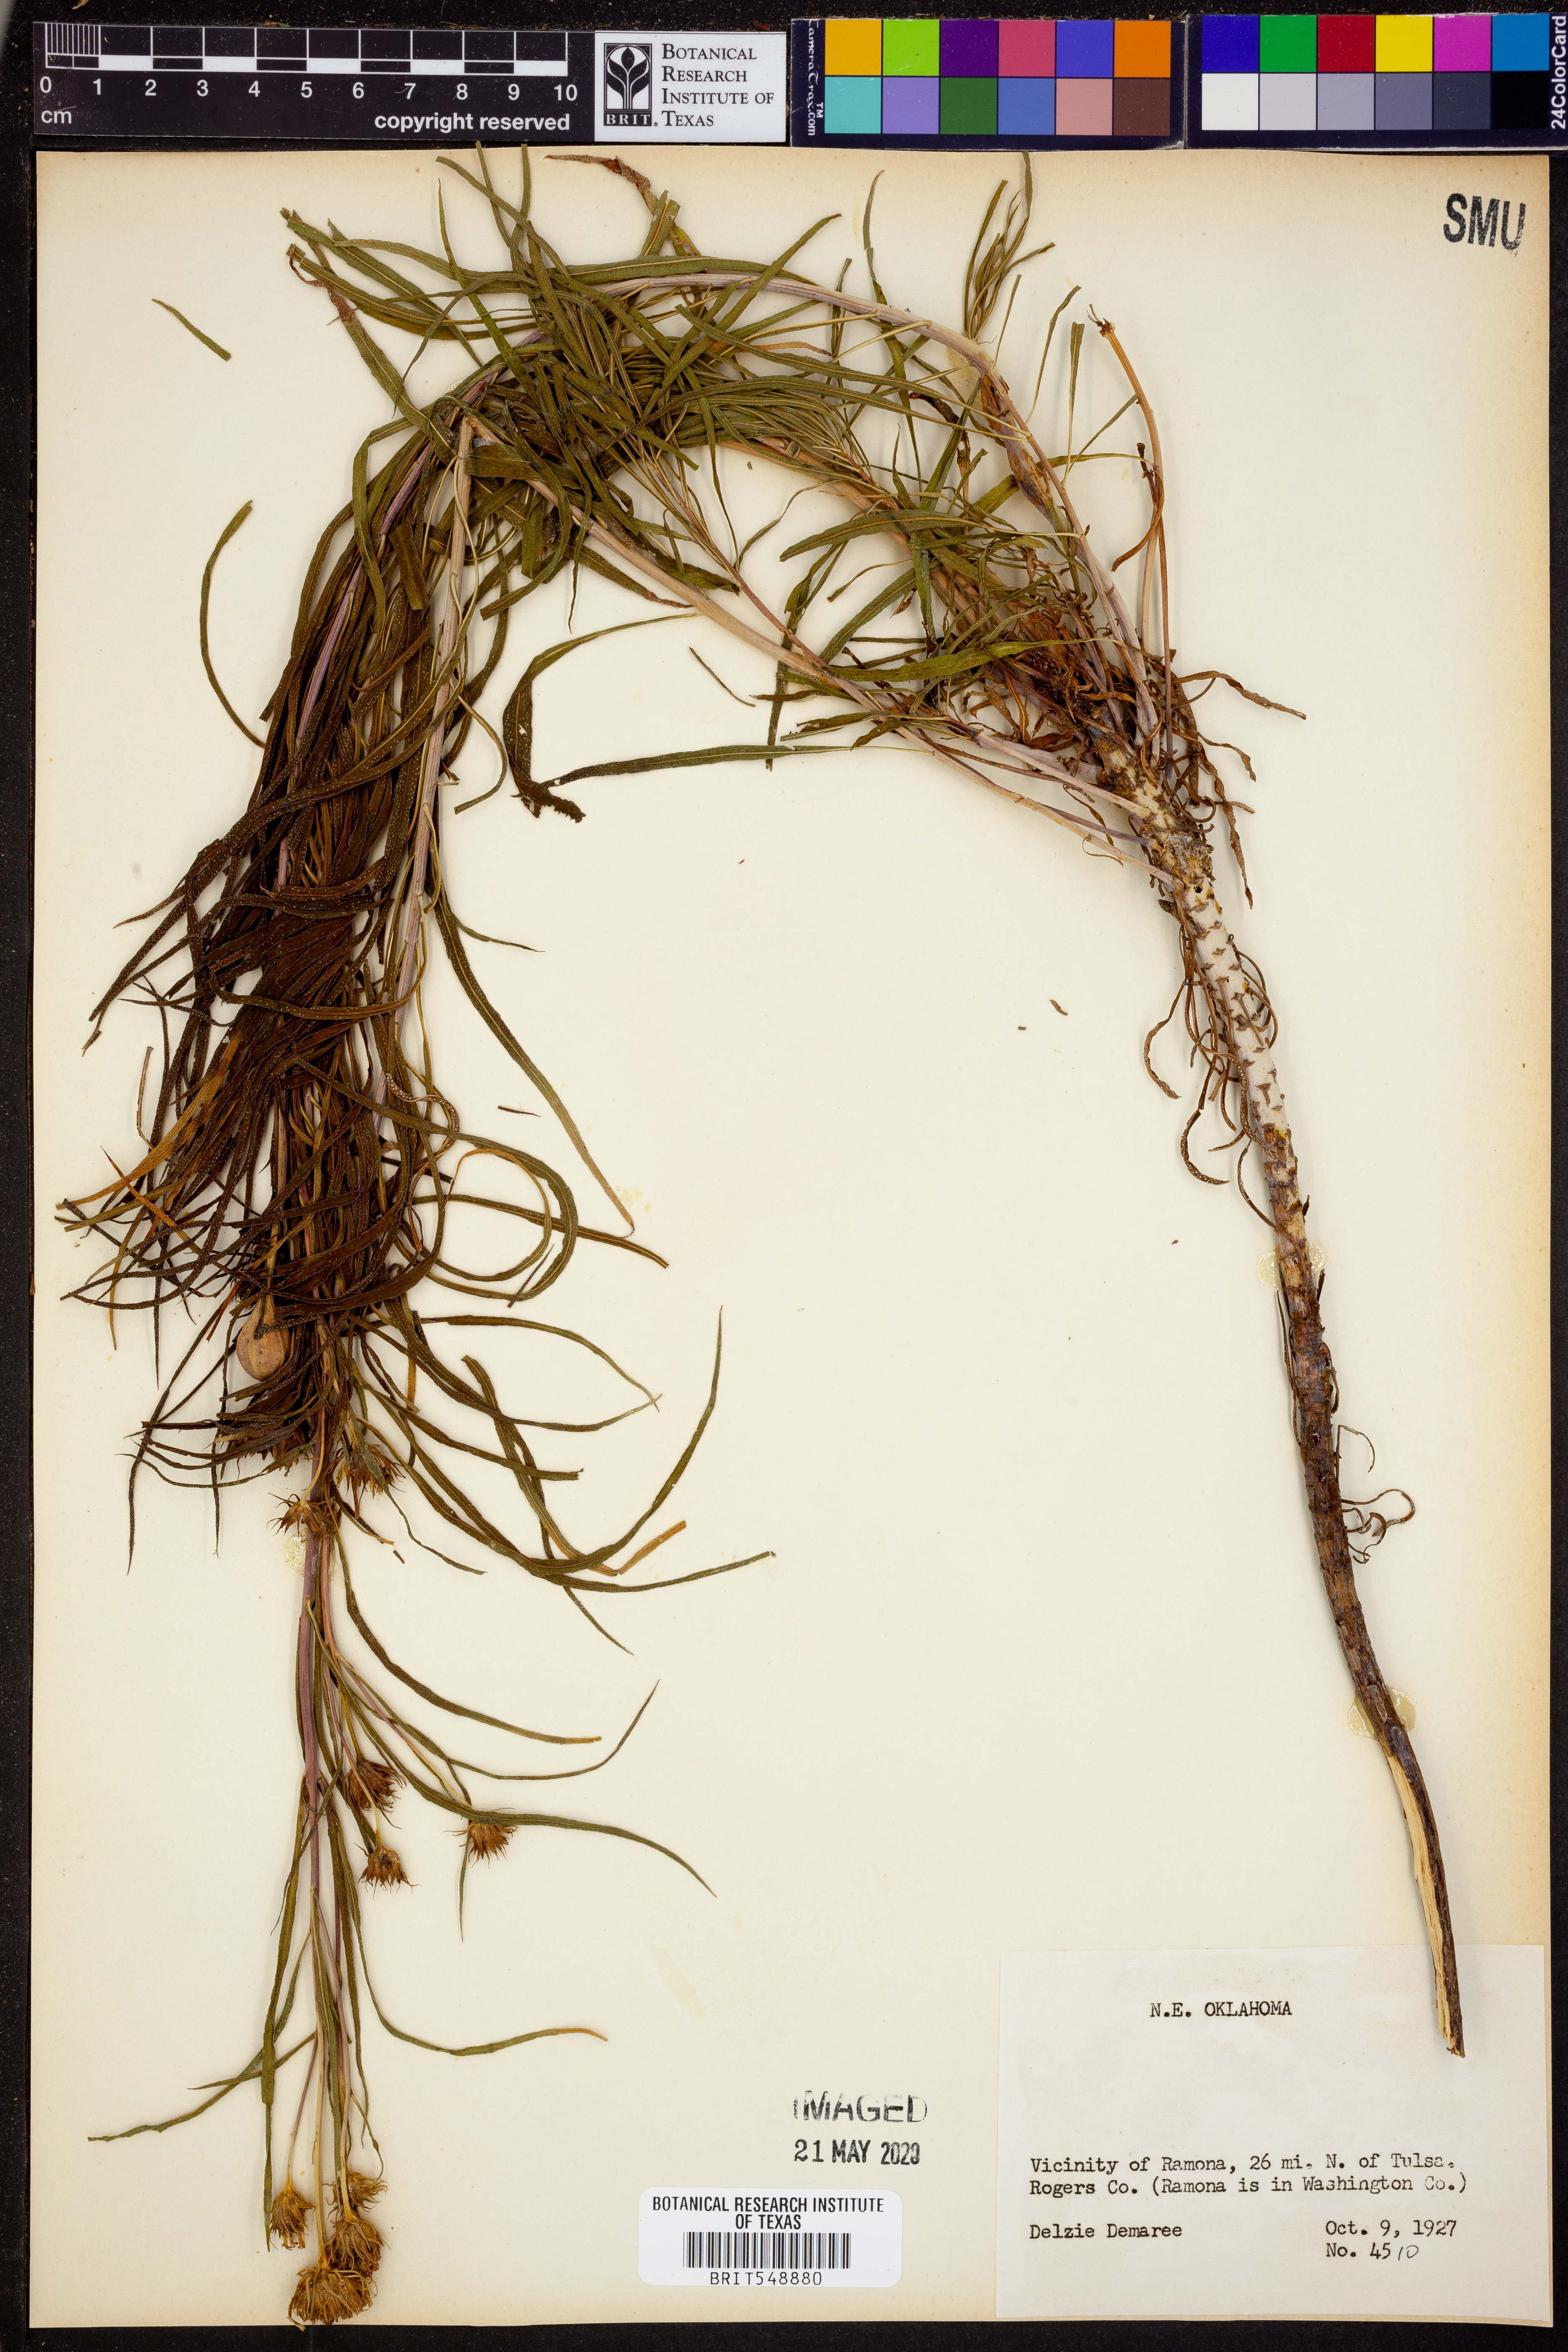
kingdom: Plantae
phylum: Tracheophyta
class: Magnoliopsida
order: Asterales
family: Asteraceae
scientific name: Asteraceae
